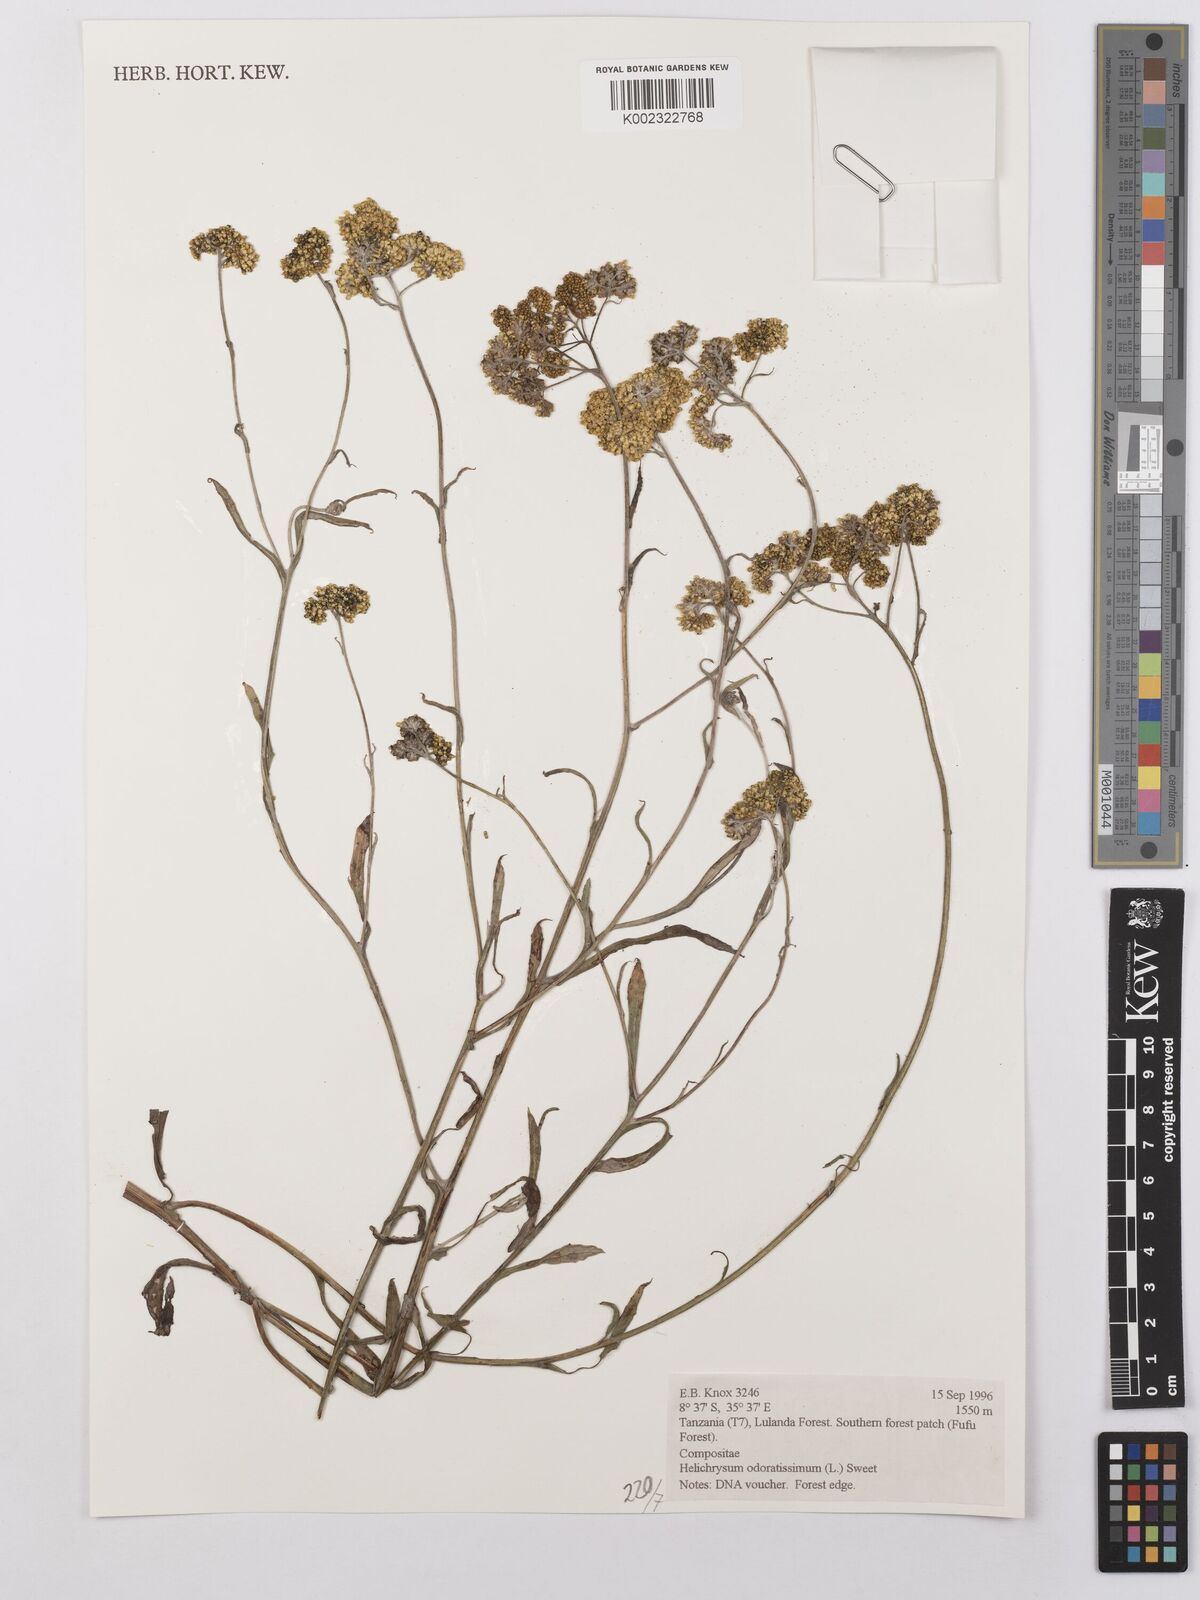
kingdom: Plantae
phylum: Tracheophyta
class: Magnoliopsida
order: Asterales
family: Asteraceae
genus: Helichrysum
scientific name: Helichrysum odoratissimum
